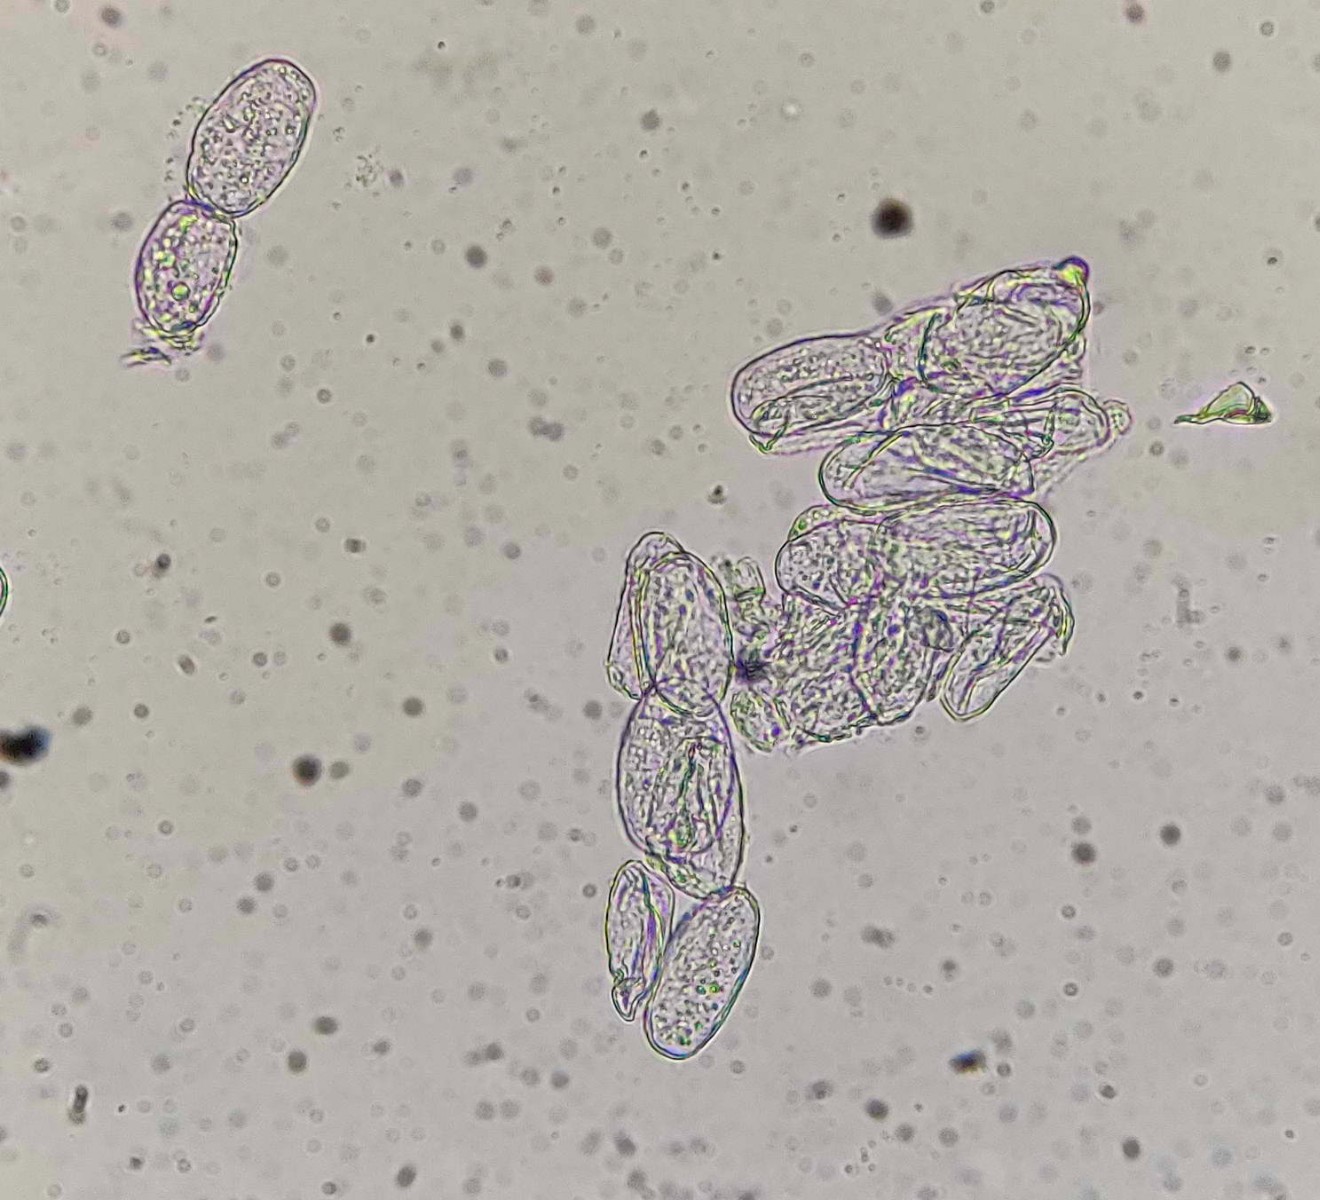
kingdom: Fungi
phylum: Ascomycota
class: Leotiomycetes
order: Helotiales
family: Erysiphaceae
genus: Erysiphe
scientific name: Erysiphe divaricata
